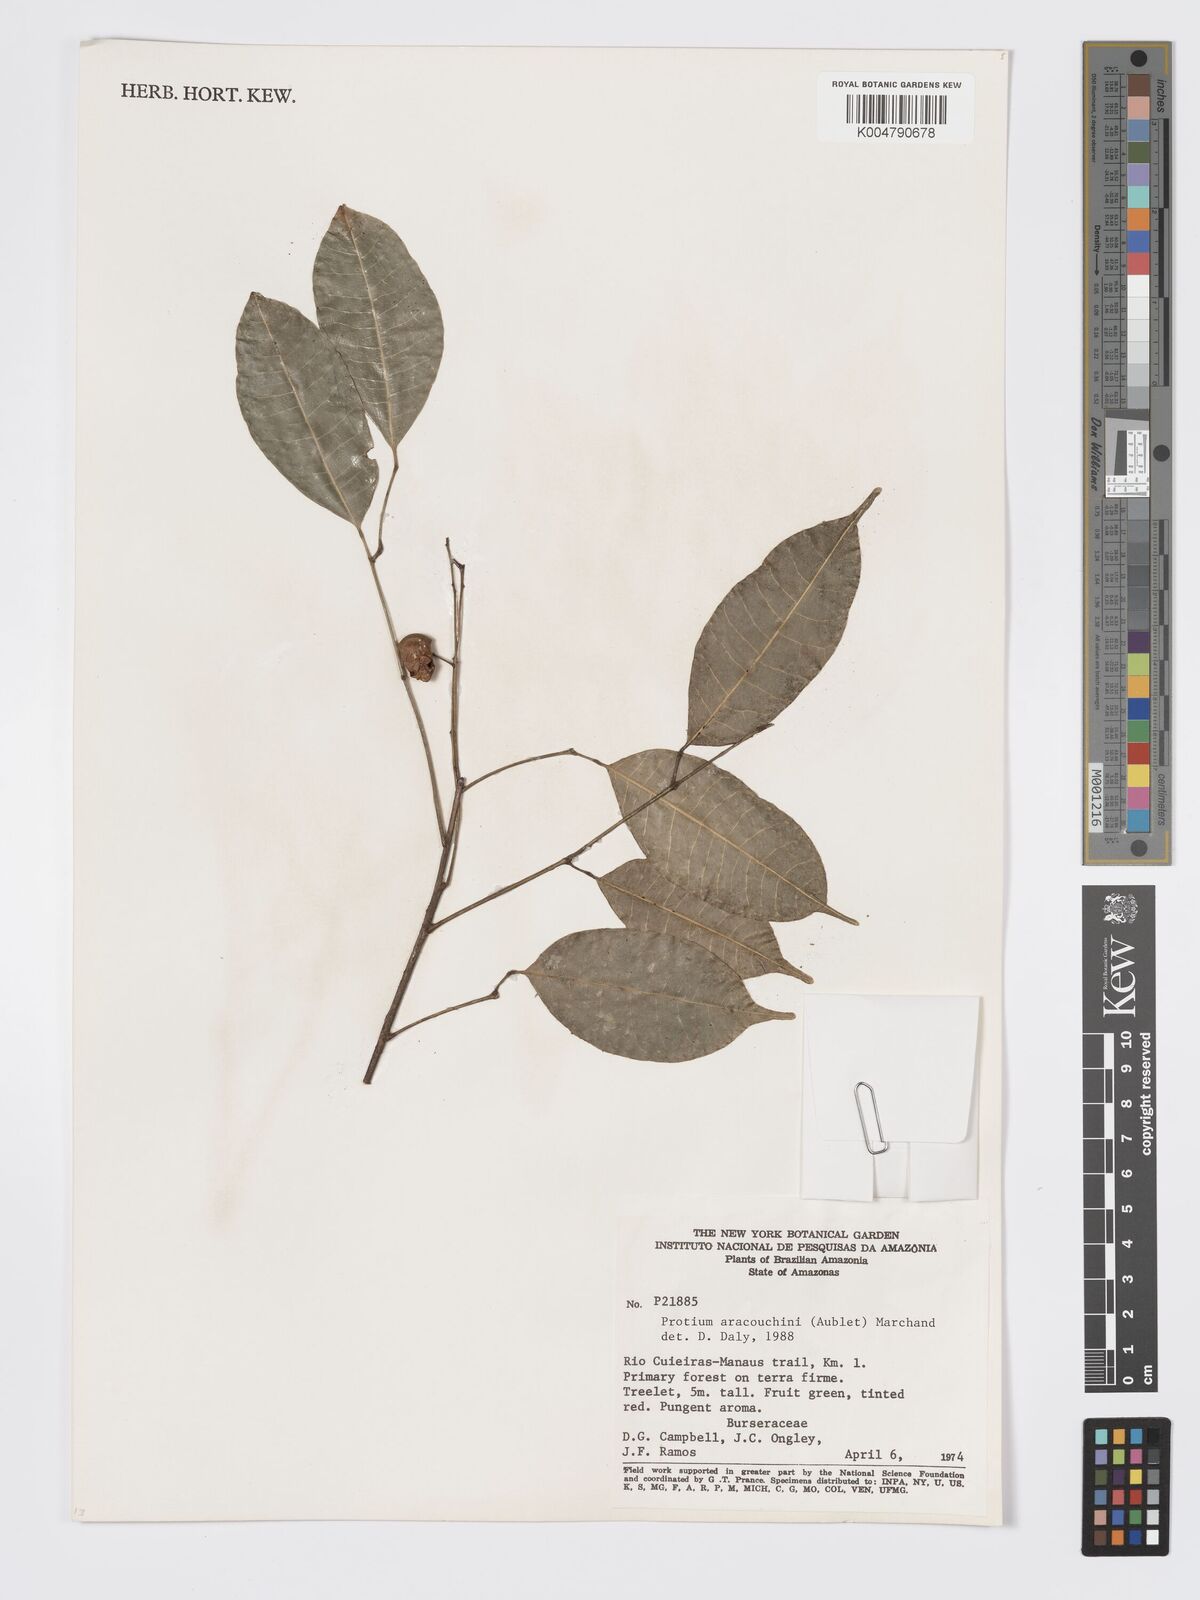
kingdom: Plantae
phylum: Tracheophyta
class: Magnoliopsida
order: Sapindales
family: Burseraceae
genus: Protium
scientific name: Protium aracouchini
